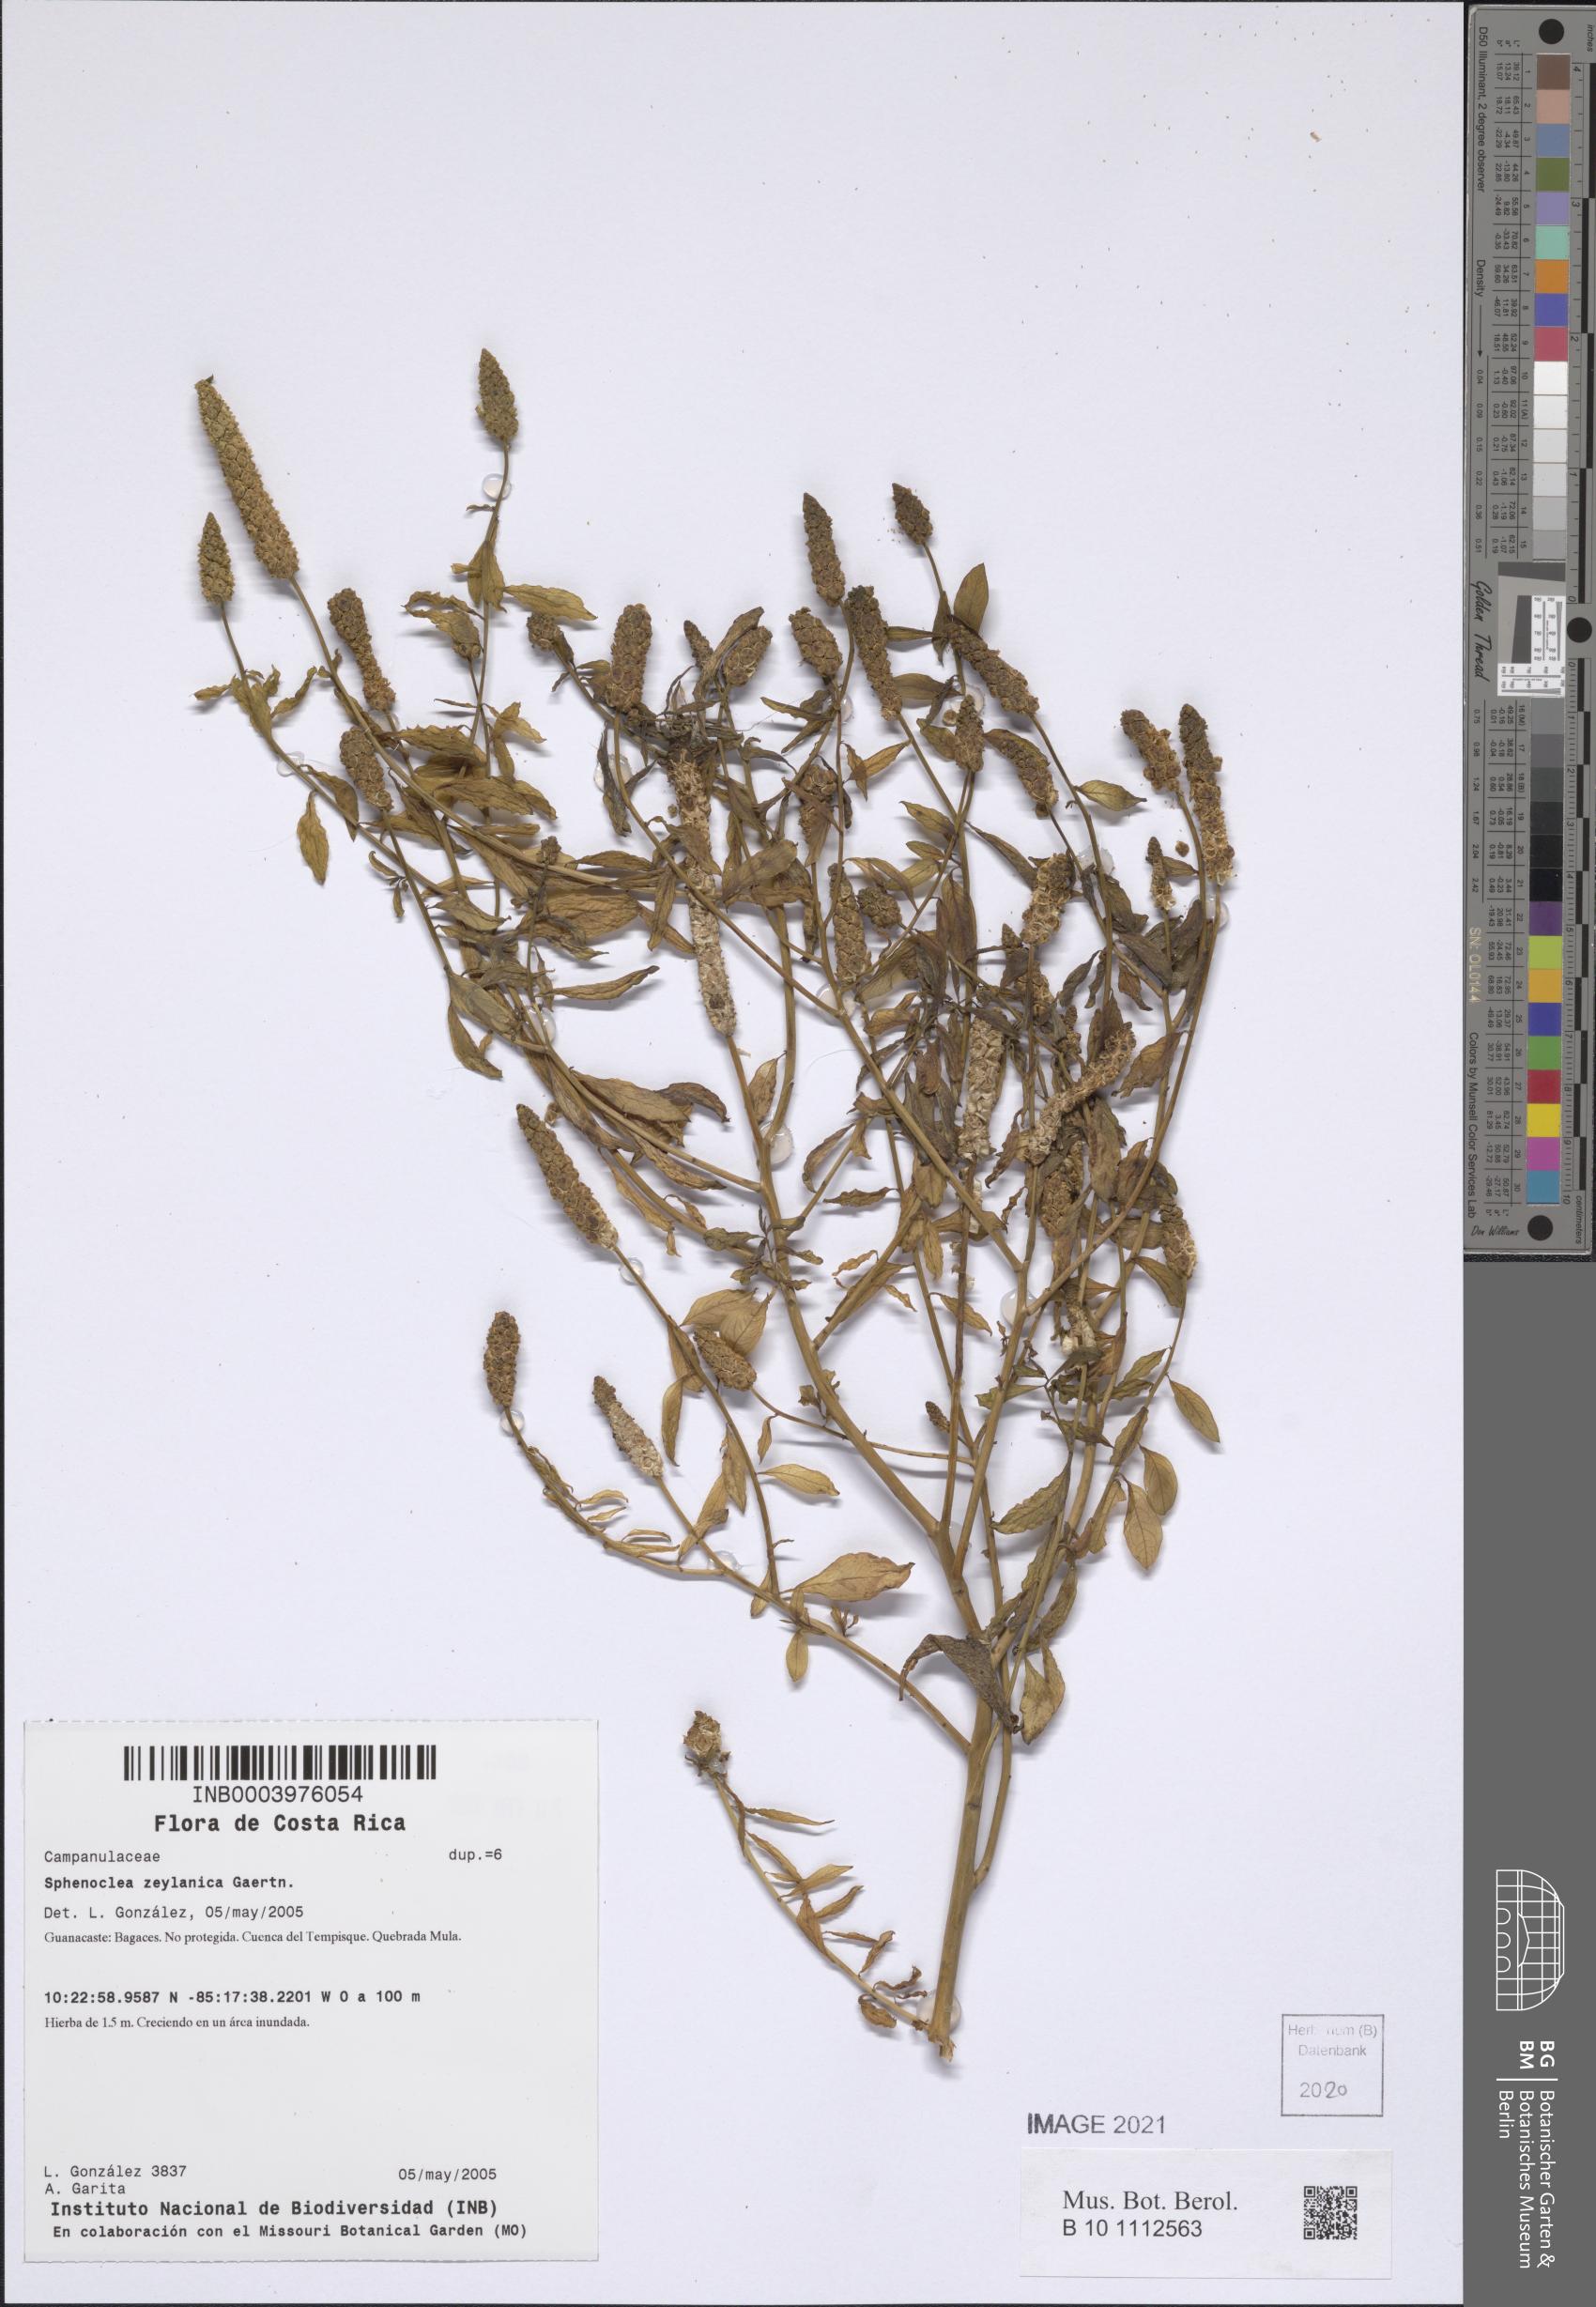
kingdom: Plantae
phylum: Tracheophyta
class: Magnoliopsida
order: Solanales
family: Sphenocleaceae
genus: Sphenoclea
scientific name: Sphenoclea zeylanica
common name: Chickenspike
